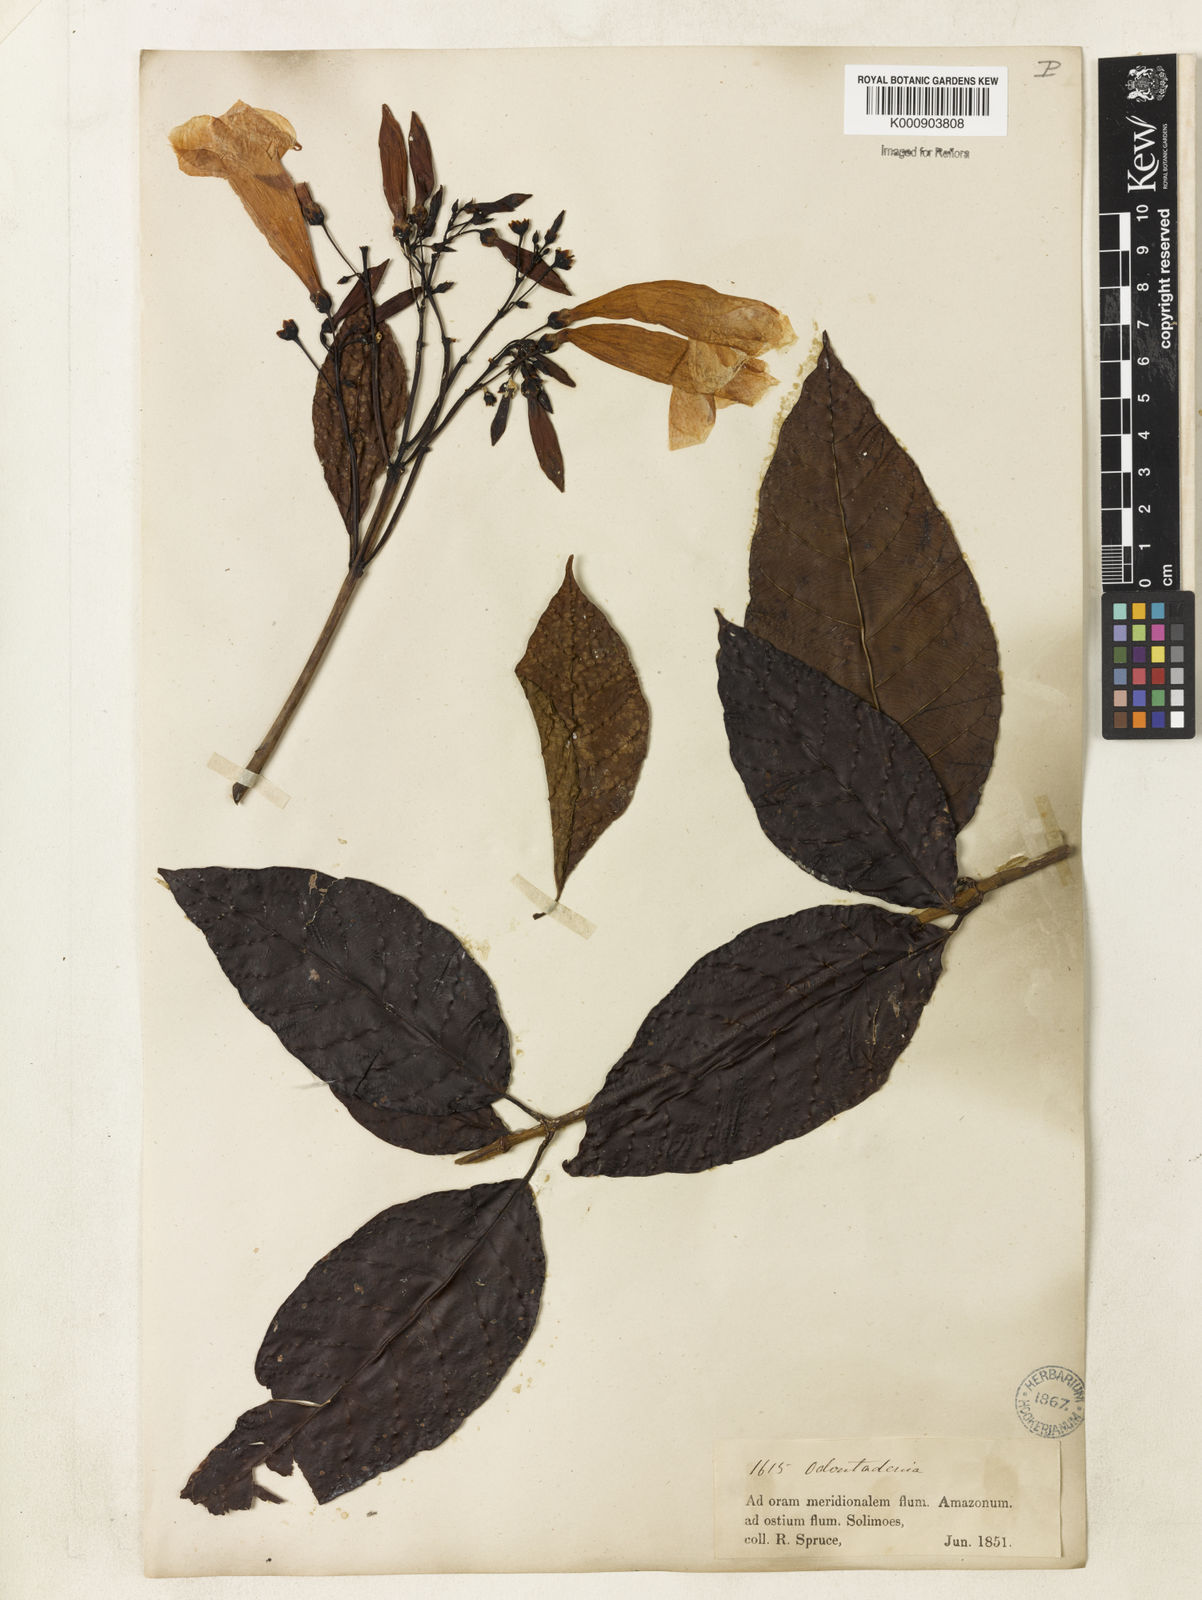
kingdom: Plantae
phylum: Tracheophyta
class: Magnoliopsida
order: Gentianales
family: Apocynaceae
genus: Odontadenia
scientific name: Odontadenia
